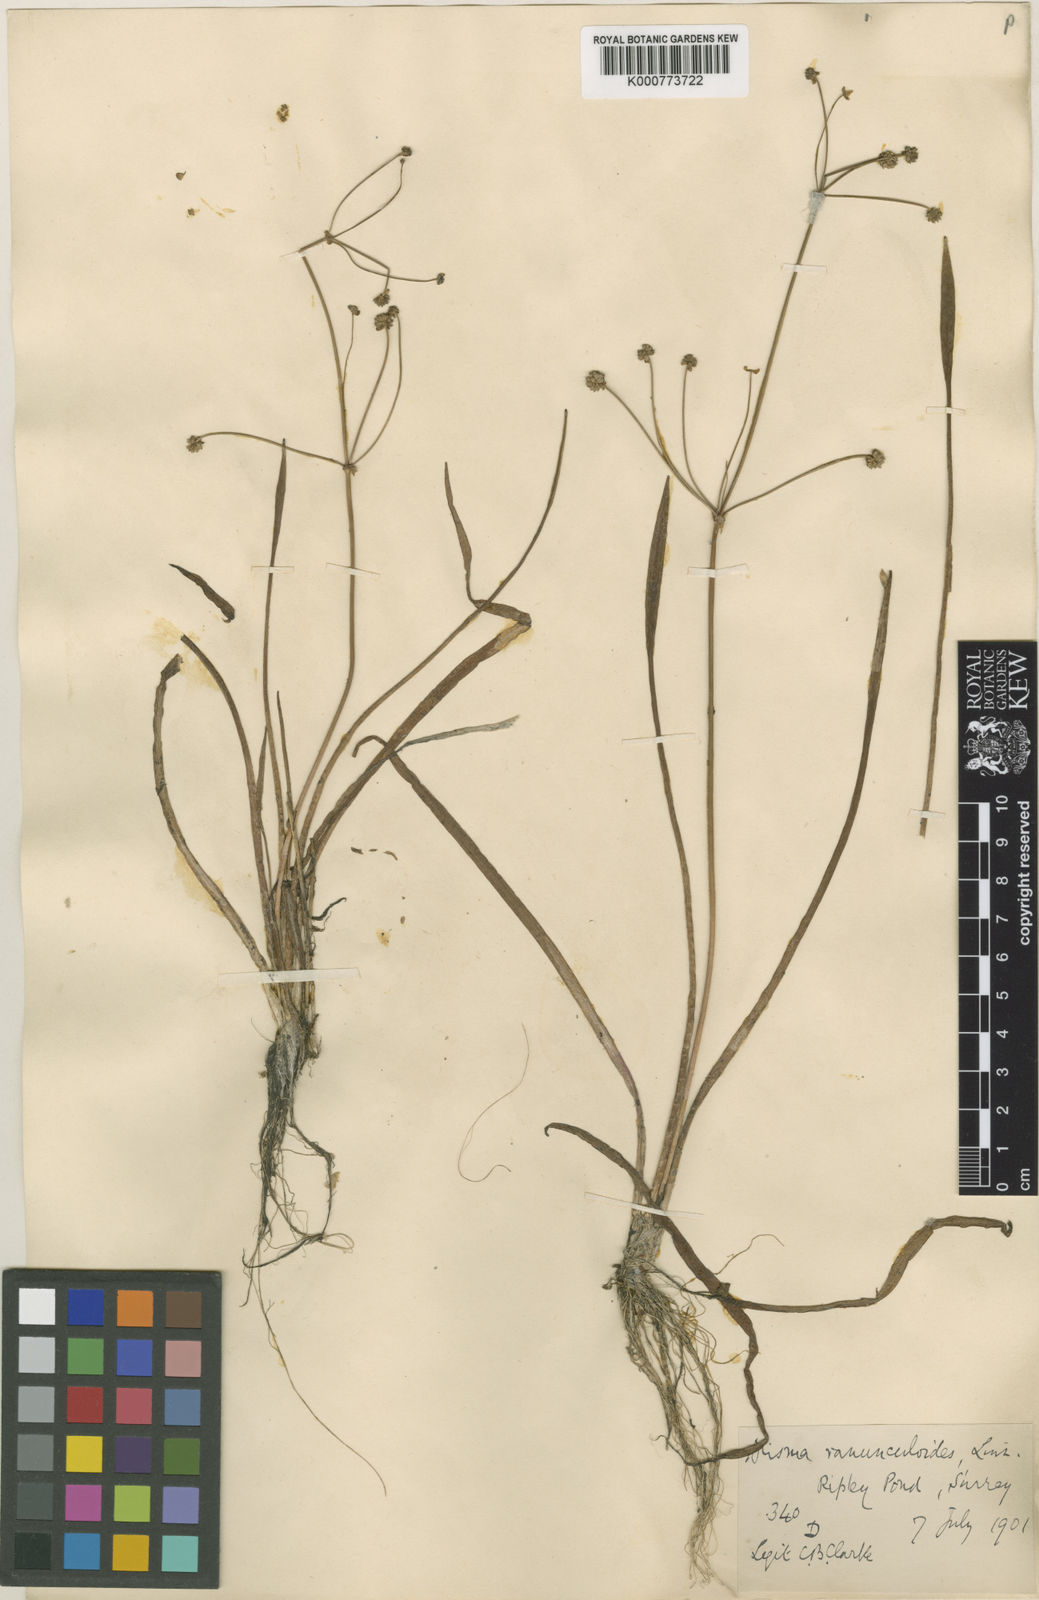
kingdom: Plantae
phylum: Tracheophyta
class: Liliopsida
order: Alismatales
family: Alismataceae
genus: Baldellia
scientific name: Baldellia ranunculoides
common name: Lesser water-plantain
